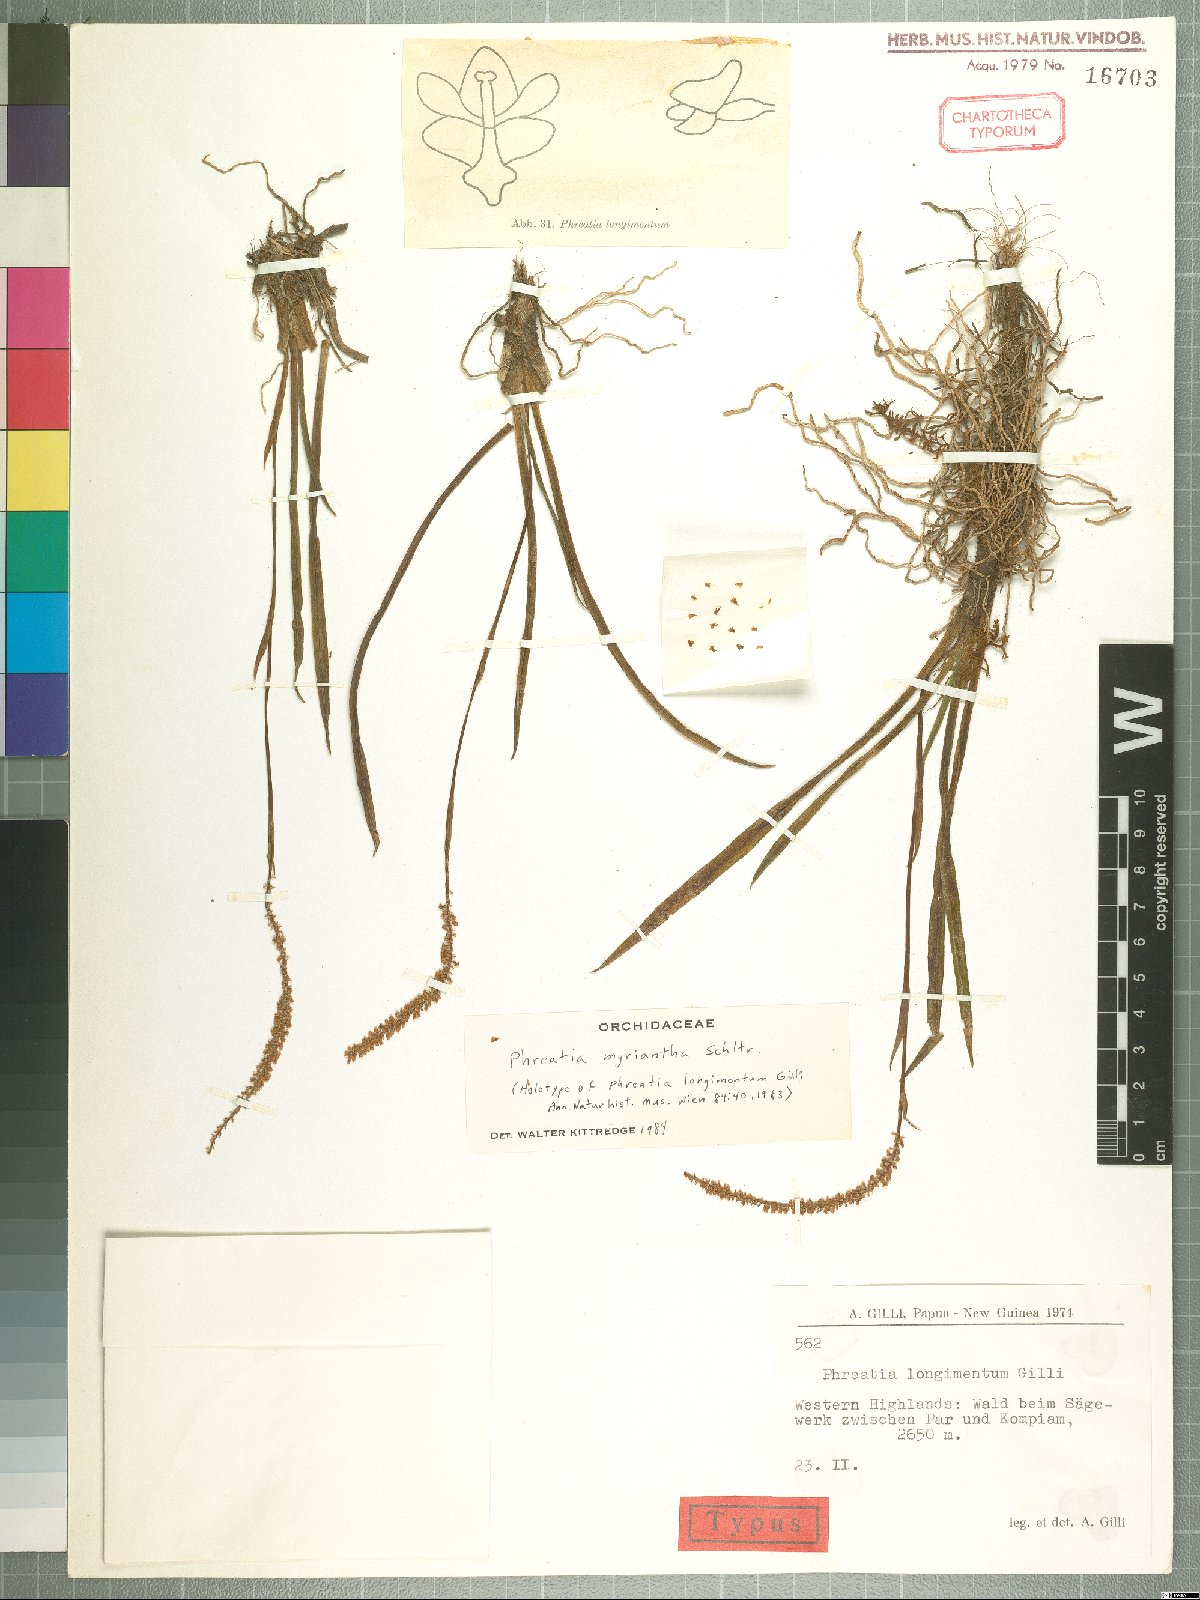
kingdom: Plantae
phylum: Tracheophyta
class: Liliopsida
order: Asparagales
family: Orchidaceae
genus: Phreatia
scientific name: Phreatia myriantha
